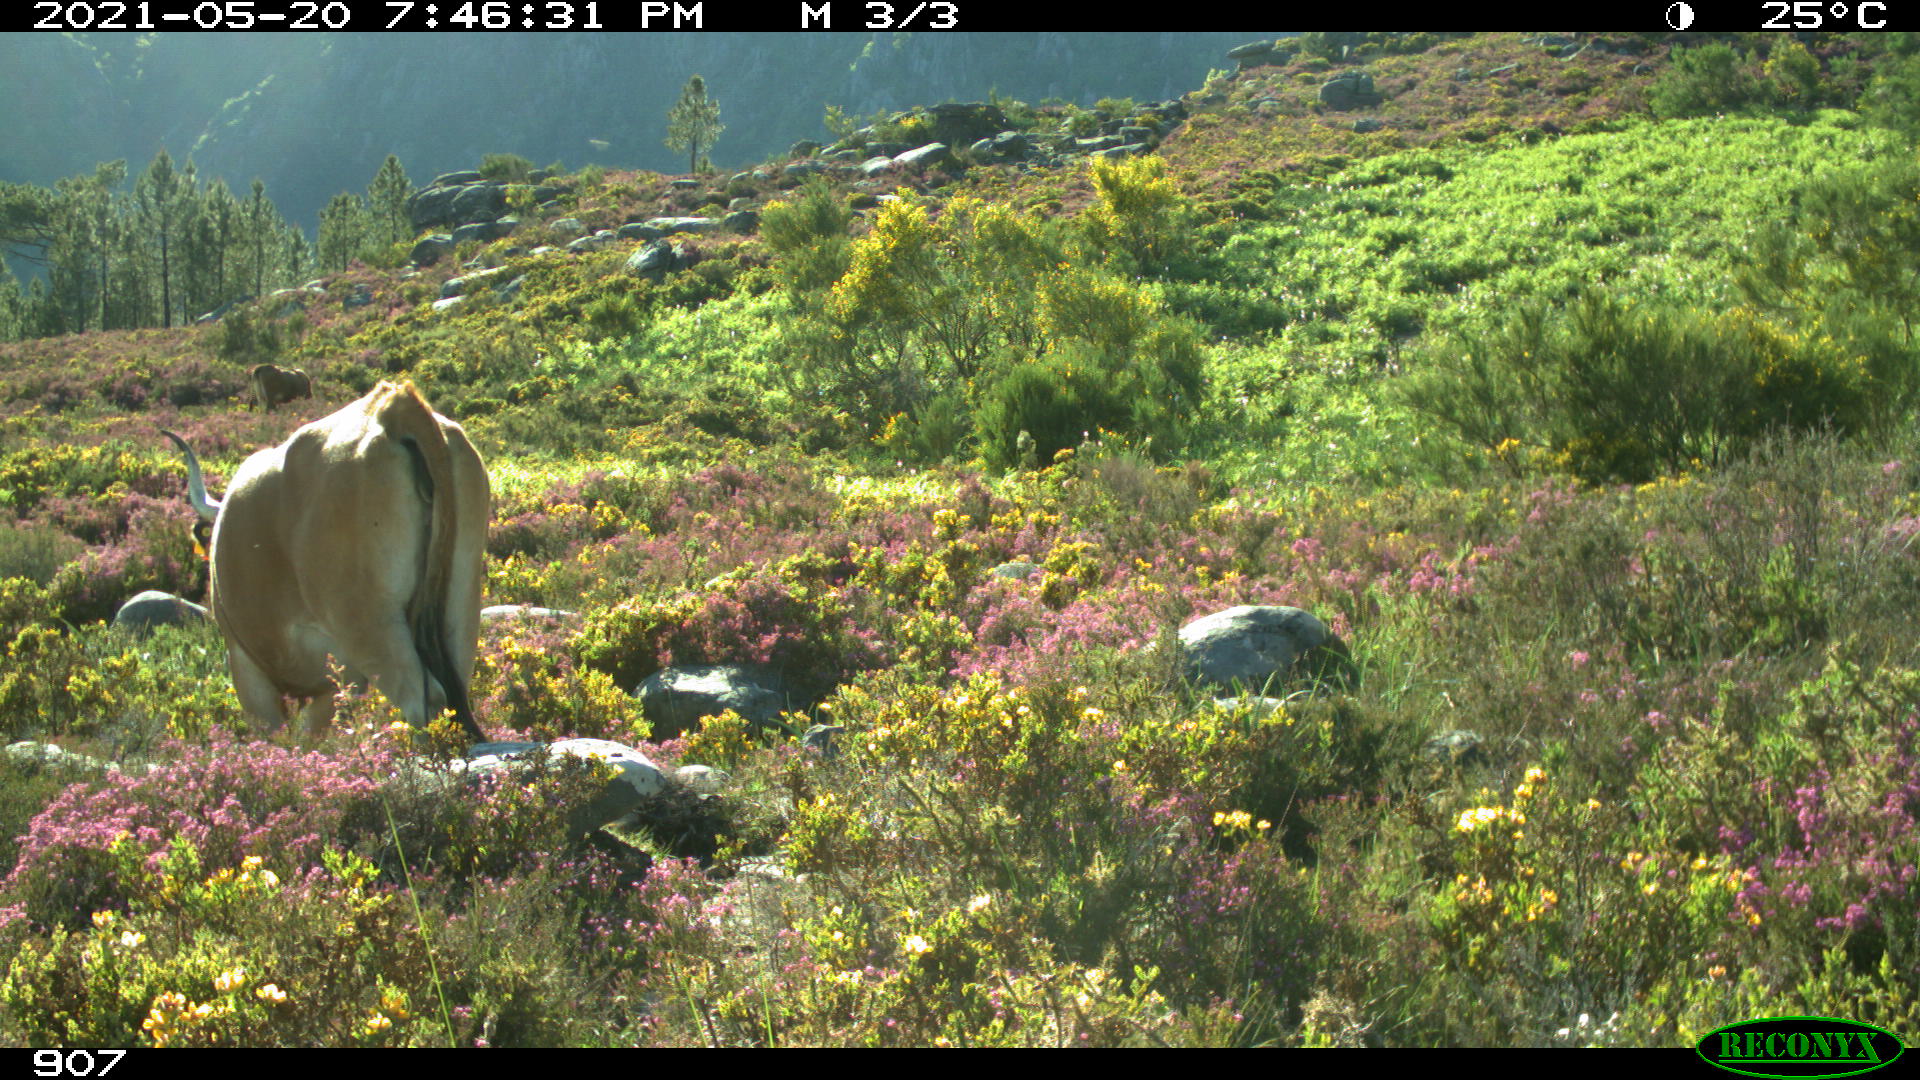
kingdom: Animalia
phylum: Chordata
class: Mammalia
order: Artiodactyla
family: Bovidae
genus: Bos
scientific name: Bos taurus
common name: Domesticated cattle
